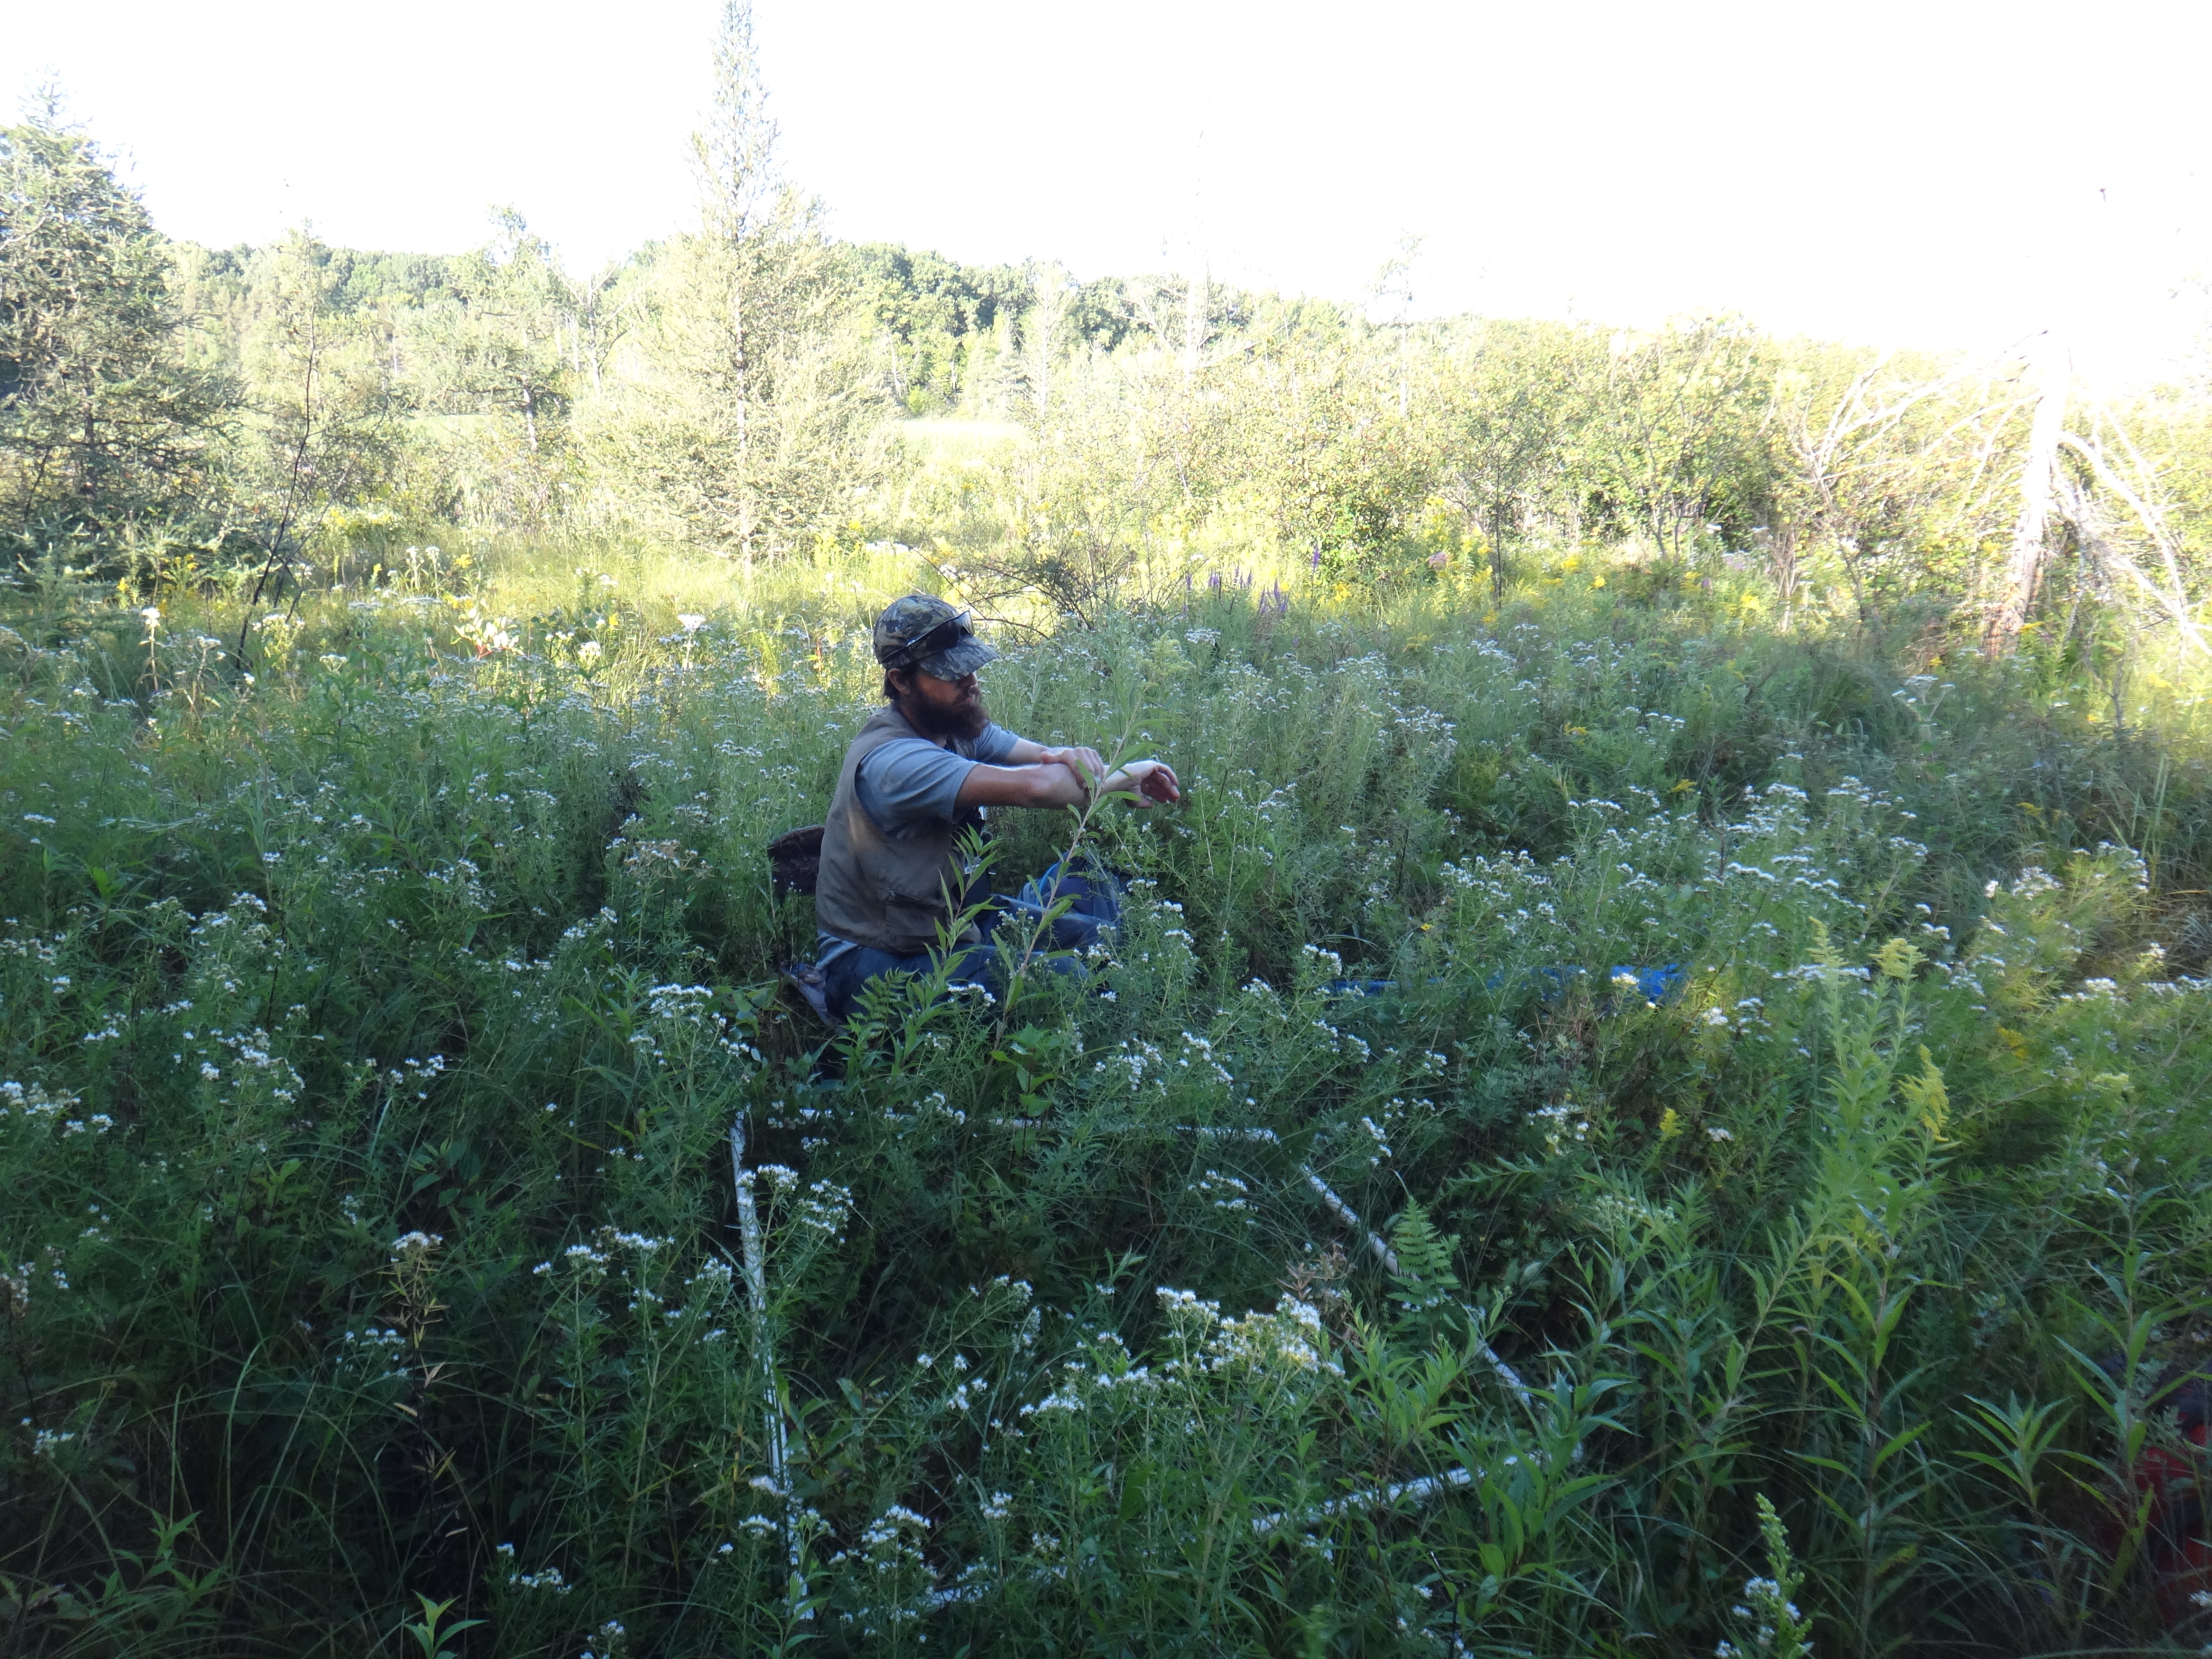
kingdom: Plantae
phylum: Tracheophyta
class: Polypodiopsida
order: Polypodiales
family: Thelypteridaceae
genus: Thelypteris
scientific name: Thelypteris palustris
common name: Marsh fern
